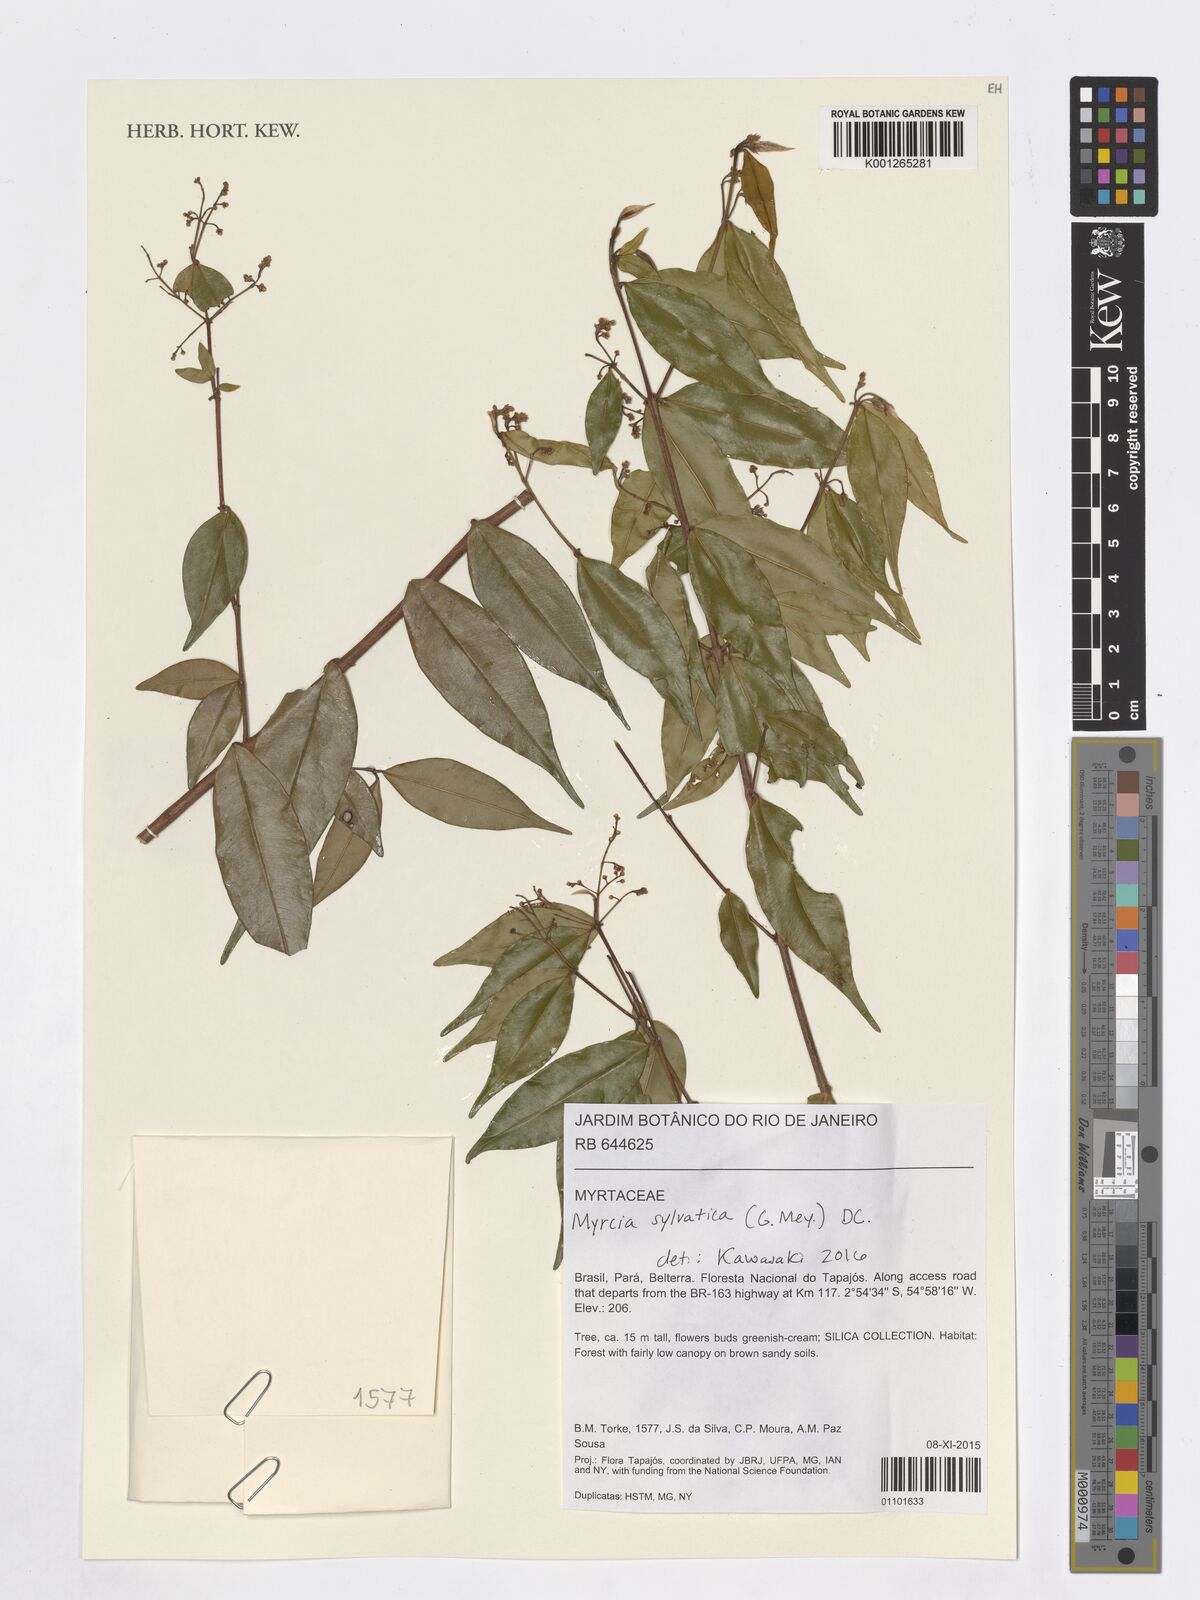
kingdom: Plantae
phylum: Tracheophyta
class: Magnoliopsida
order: Myrtales
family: Myrtaceae
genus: Myrcia
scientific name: Myrcia sylvatica
